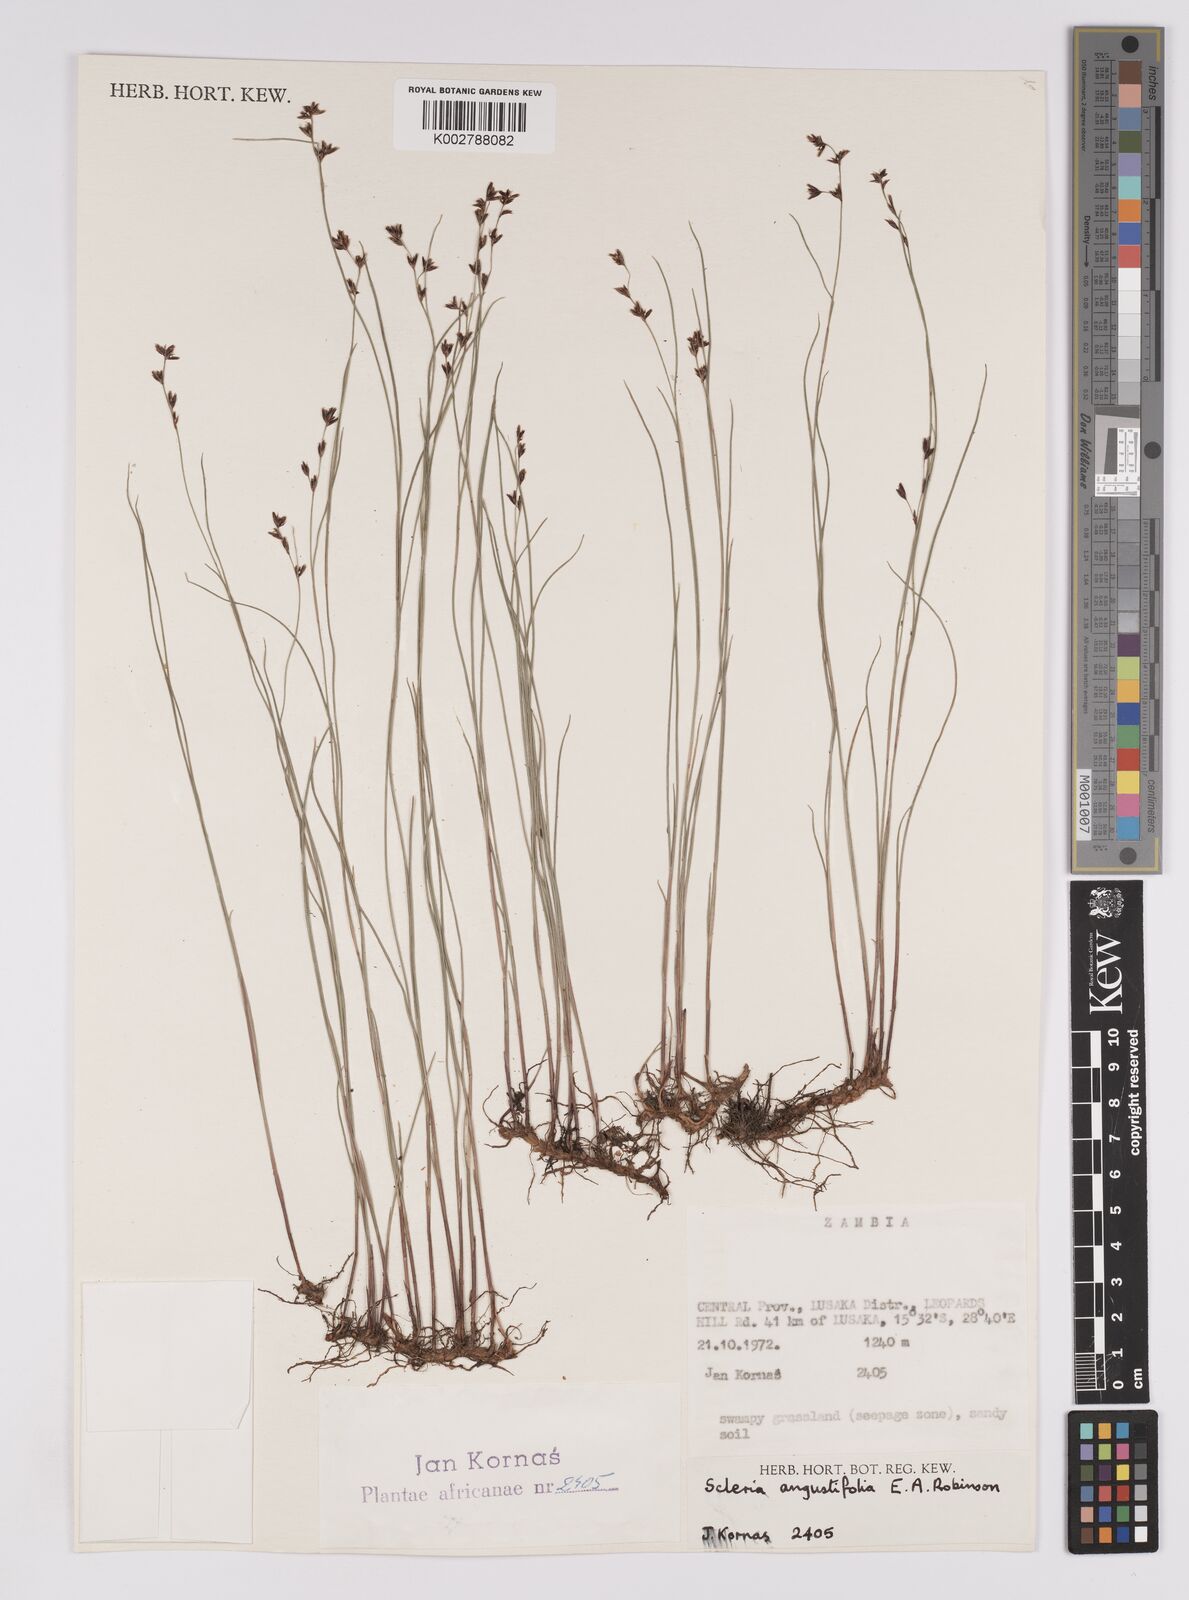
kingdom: Plantae
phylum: Tracheophyta
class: Liliopsida
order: Poales
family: Cyperaceae
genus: Scleria
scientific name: Scleria angustifolia
